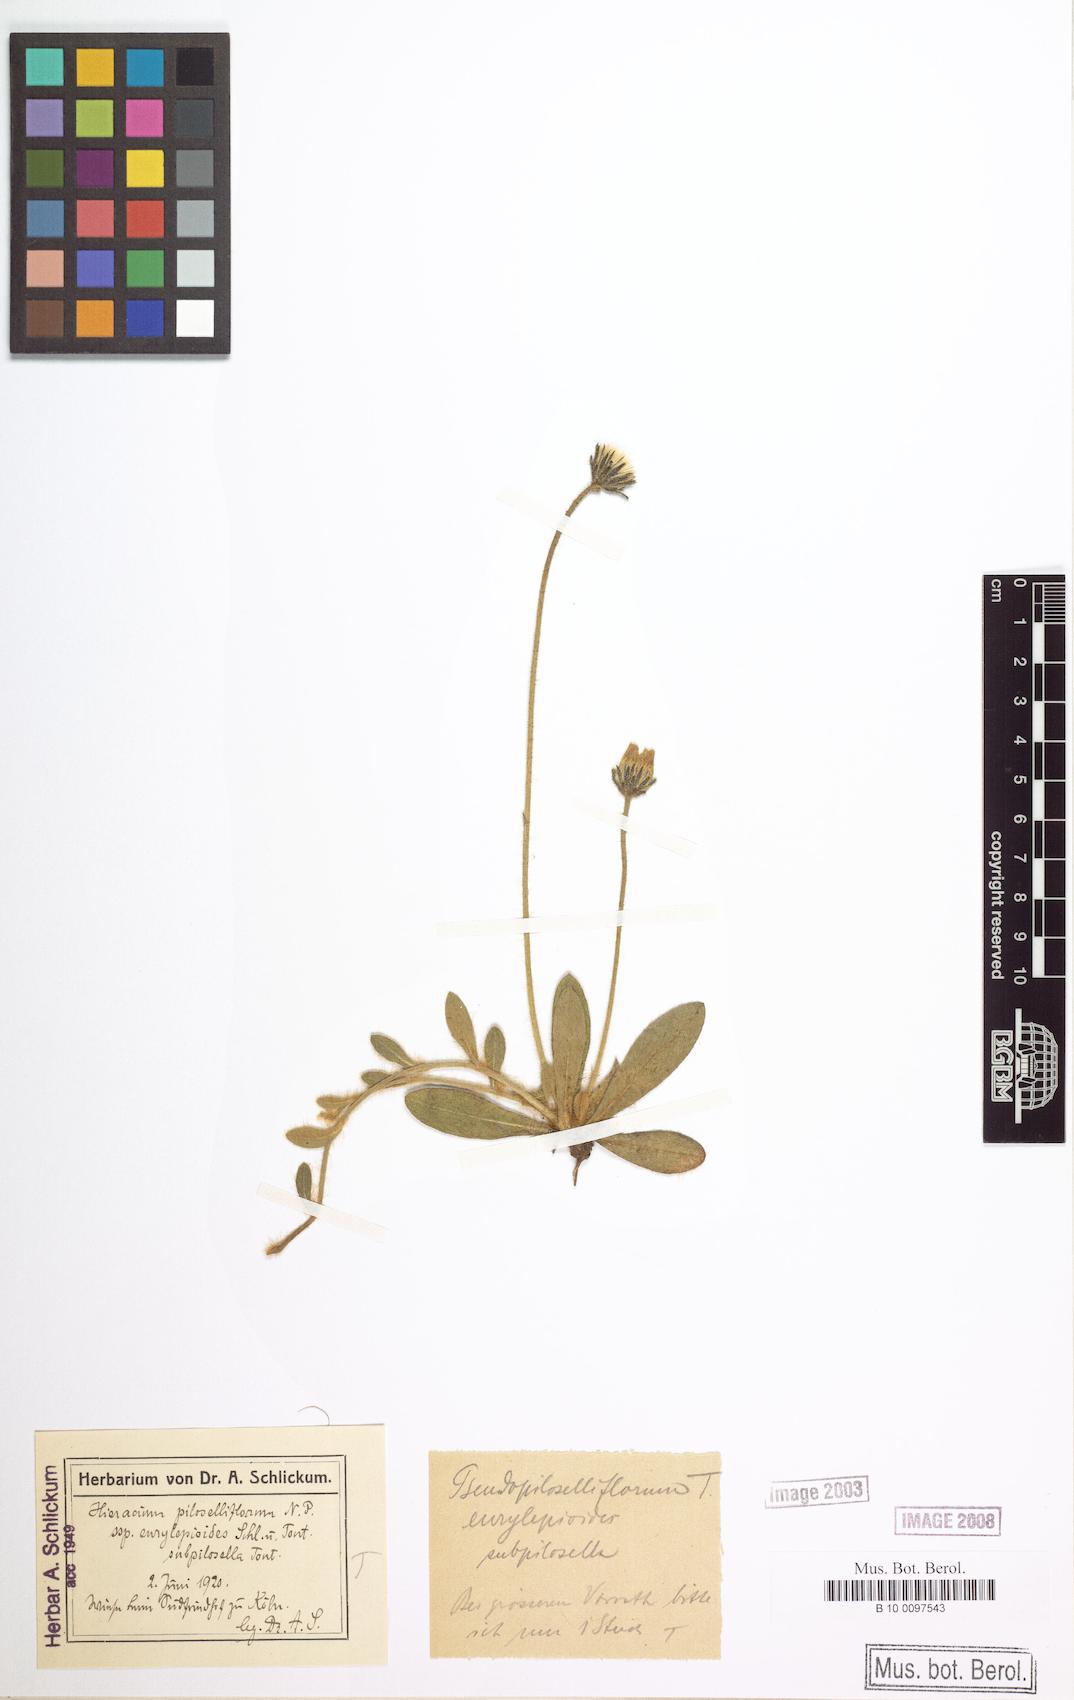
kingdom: Plantae
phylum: Tracheophyta
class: Magnoliopsida
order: Asterales
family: Asteraceae
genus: Pilosella
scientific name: Pilosella piloselliflora
